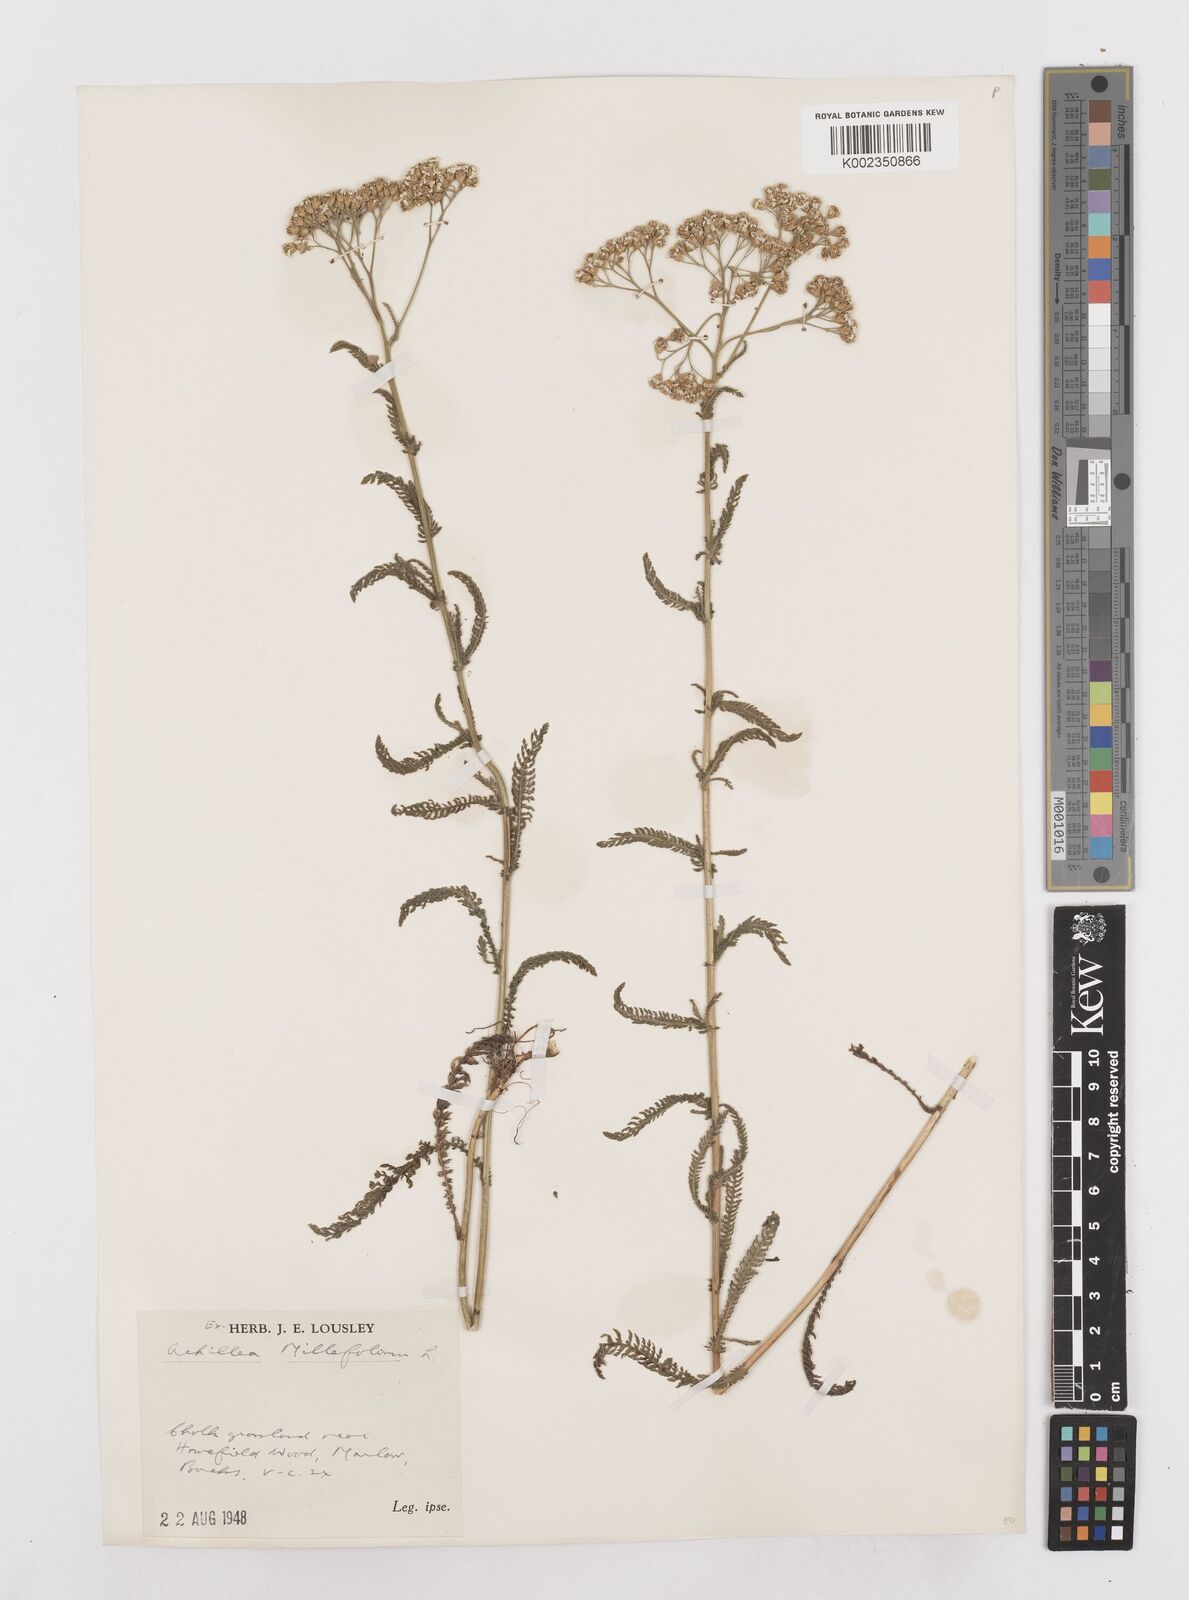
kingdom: Plantae
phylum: Tracheophyta
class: Magnoliopsida
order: Asterales
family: Asteraceae
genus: Achillea
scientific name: Achillea millefolium
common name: Yarrow
